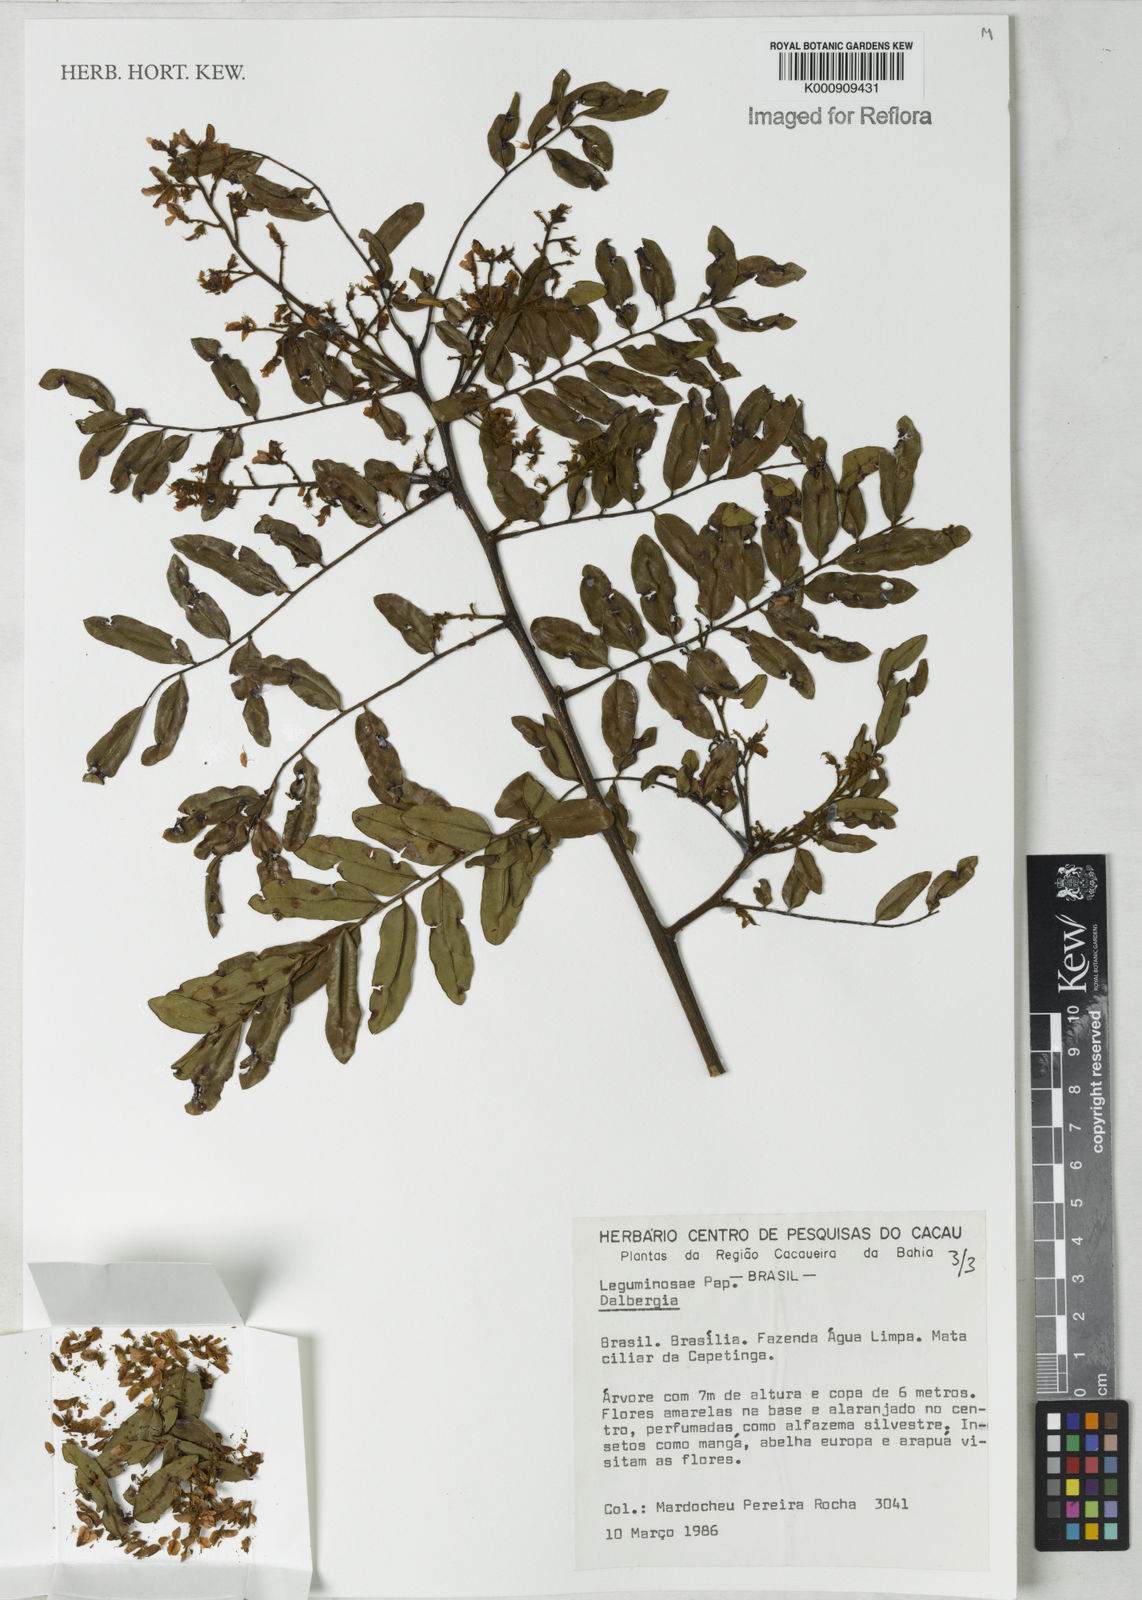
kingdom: Plantae
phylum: Tracheophyta
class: Magnoliopsida
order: Fabales
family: Fabaceae
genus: Dalbergia
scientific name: Dalbergia
